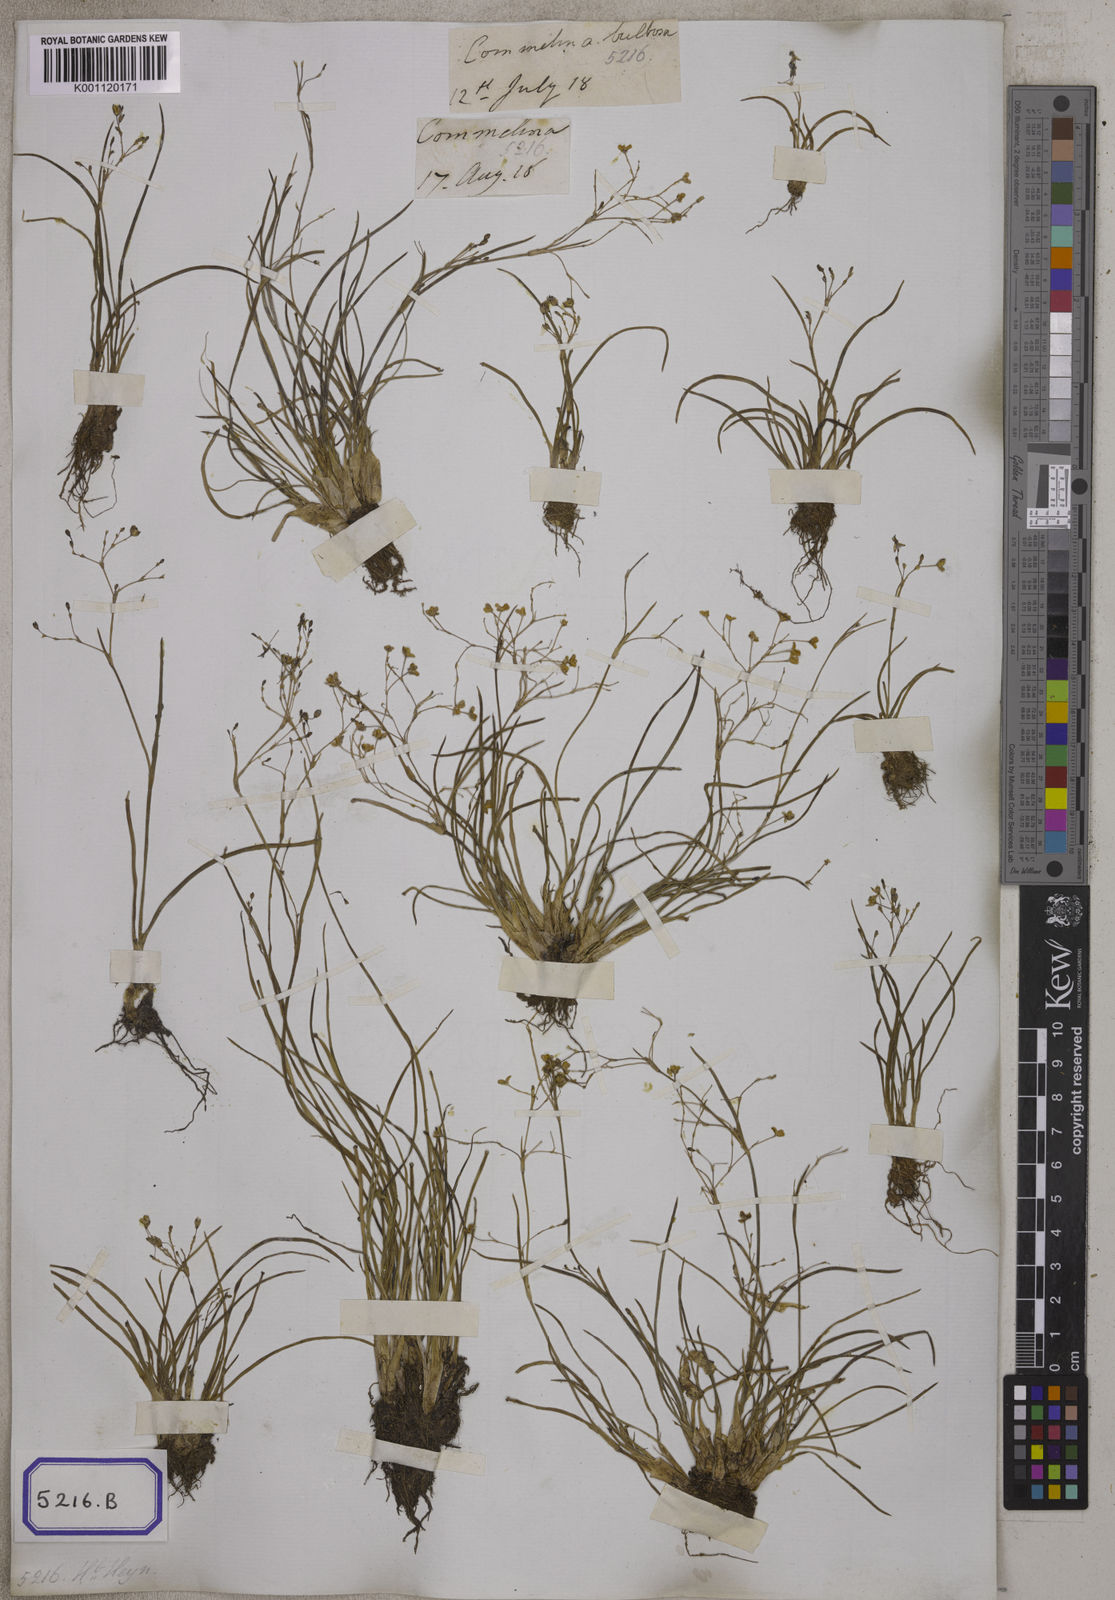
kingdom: Plantae
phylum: Tracheophyta
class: Liliopsida
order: Commelinales
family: Commelinaceae
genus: Aneilema
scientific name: Aneilema
